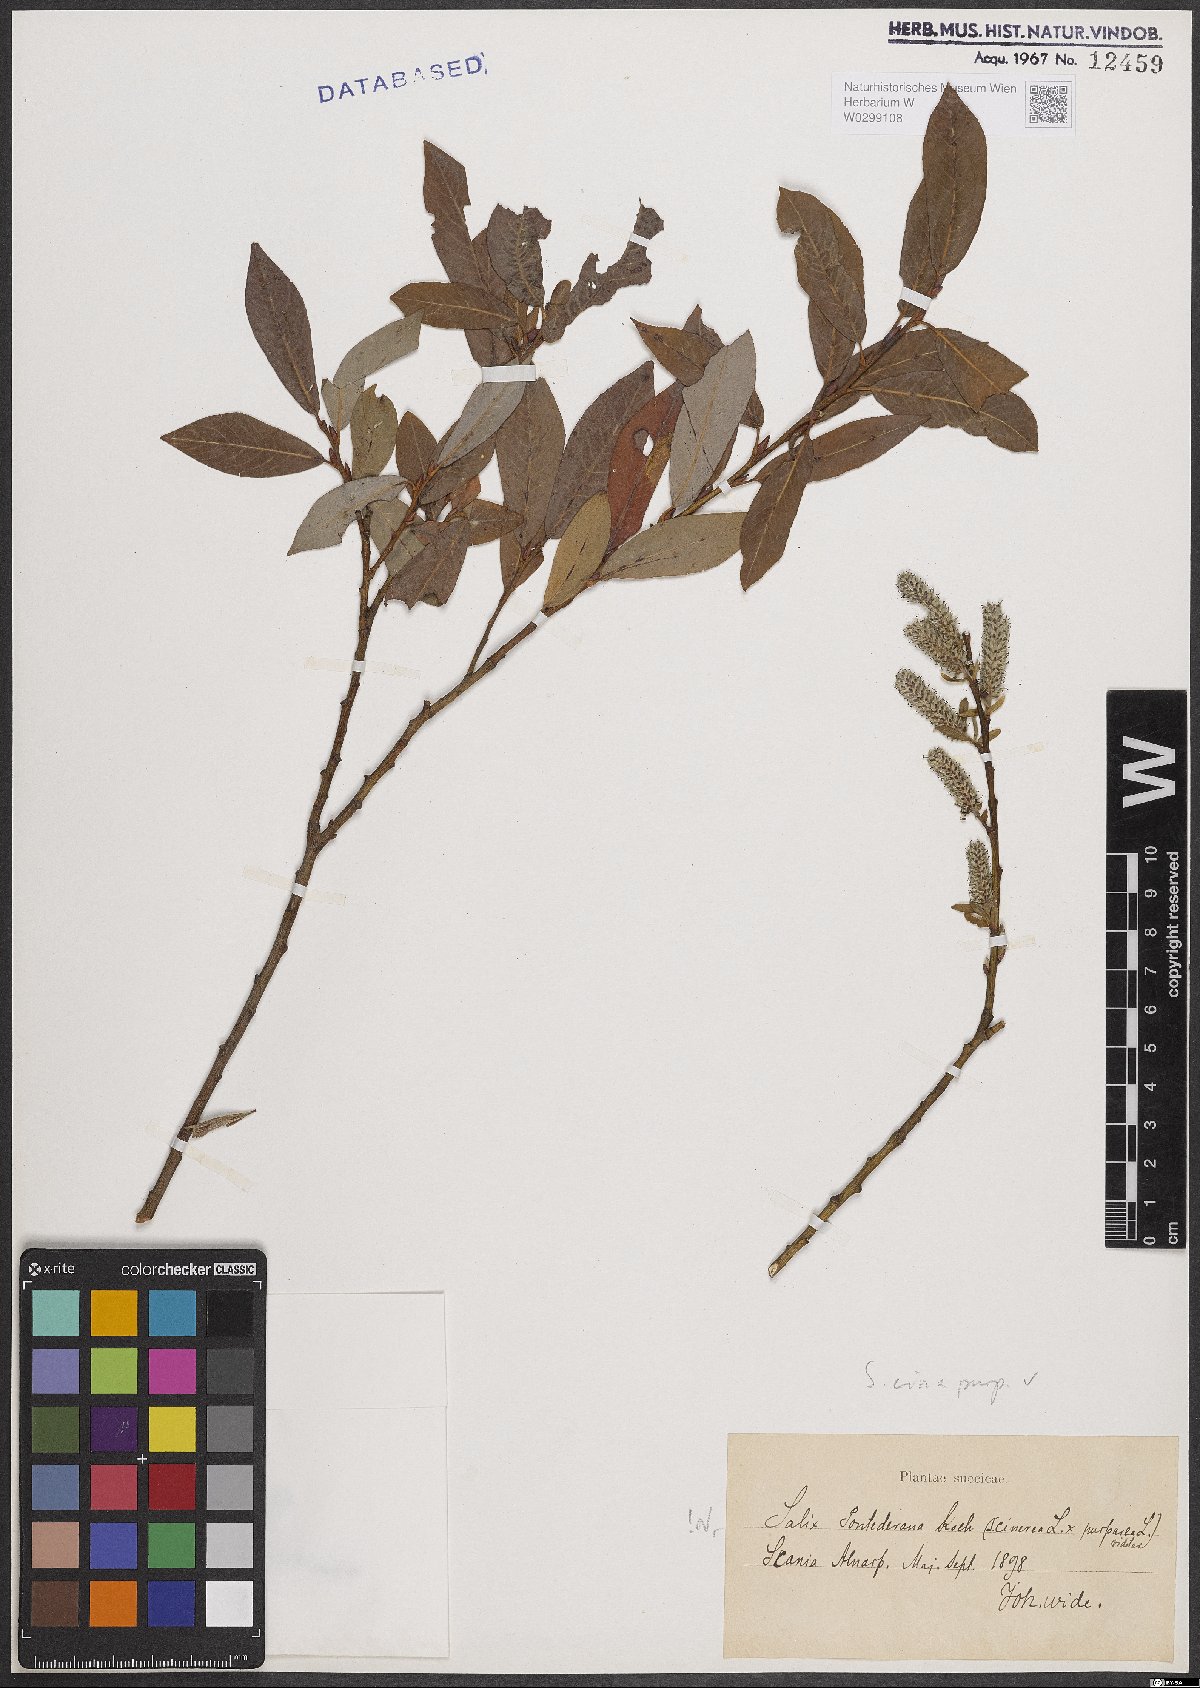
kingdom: Plantae
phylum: Tracheophyta
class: Magnoliopsida
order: Malpighiales
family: Salicaceae
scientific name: Salicaceae
